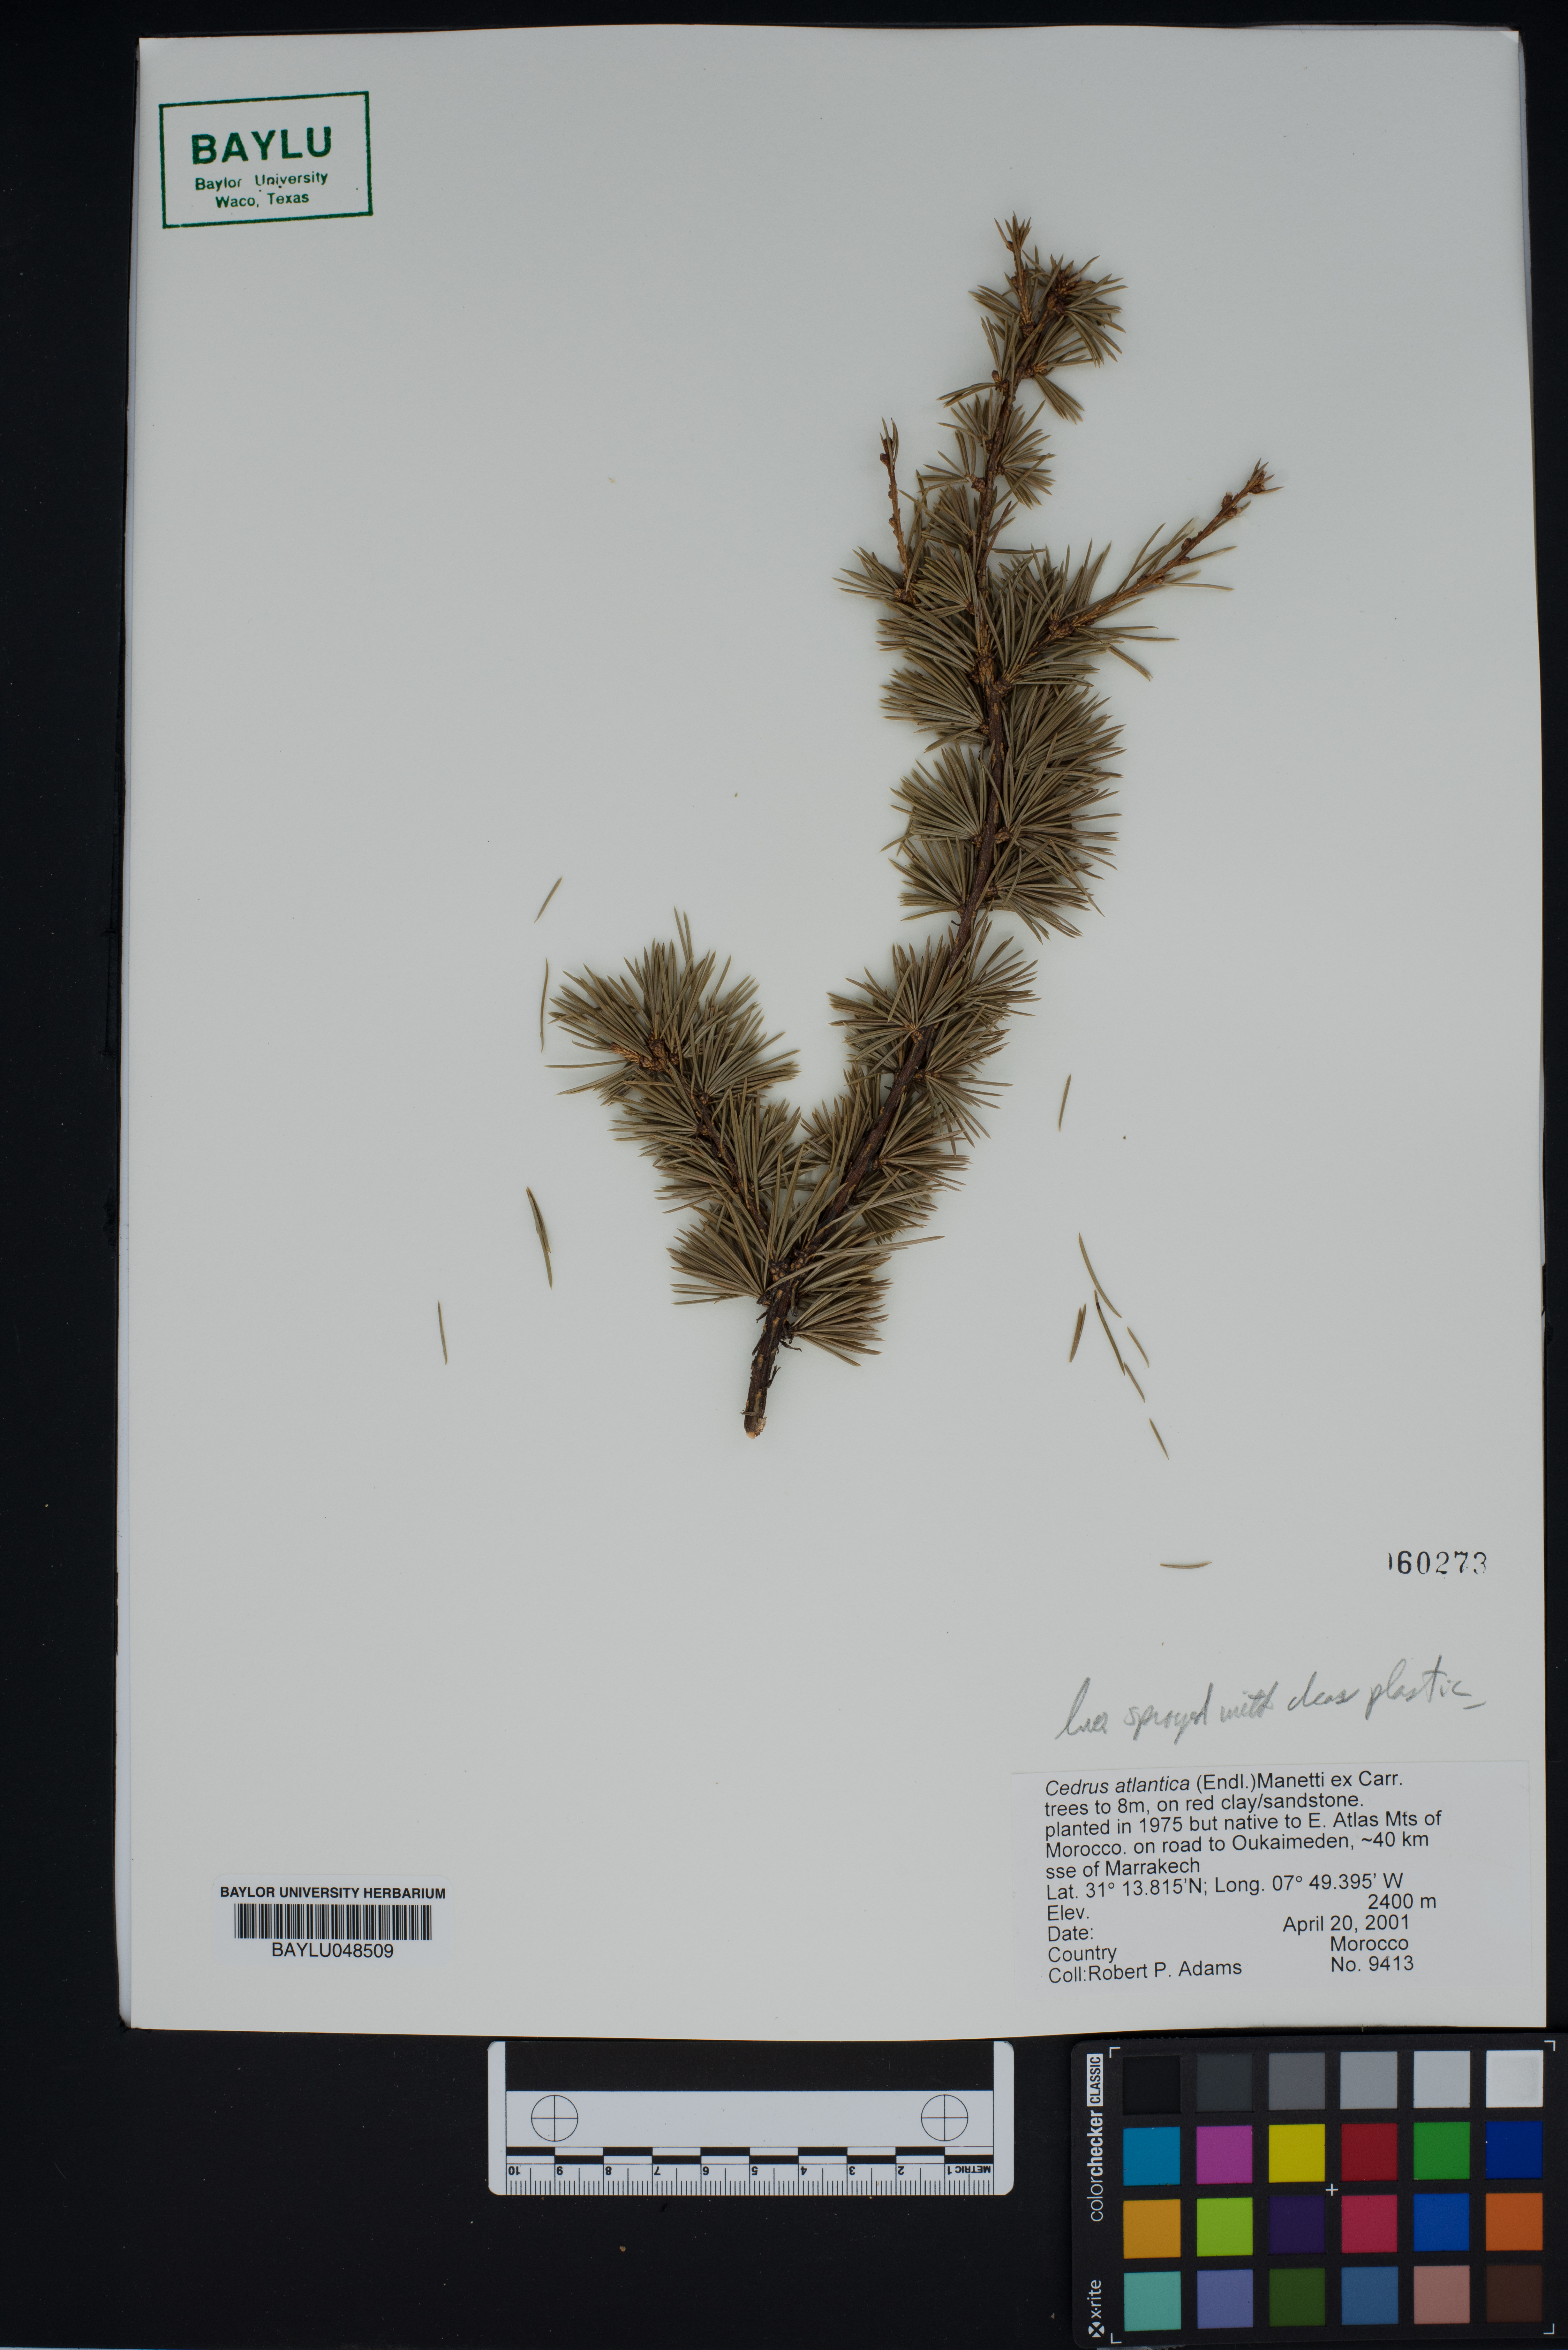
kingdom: Plantae
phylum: Tracheophyta
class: Pinopsida
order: Pinales
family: Pinaceae
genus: Cedrus
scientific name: Cedrus atlantica
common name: Atlas cedar
